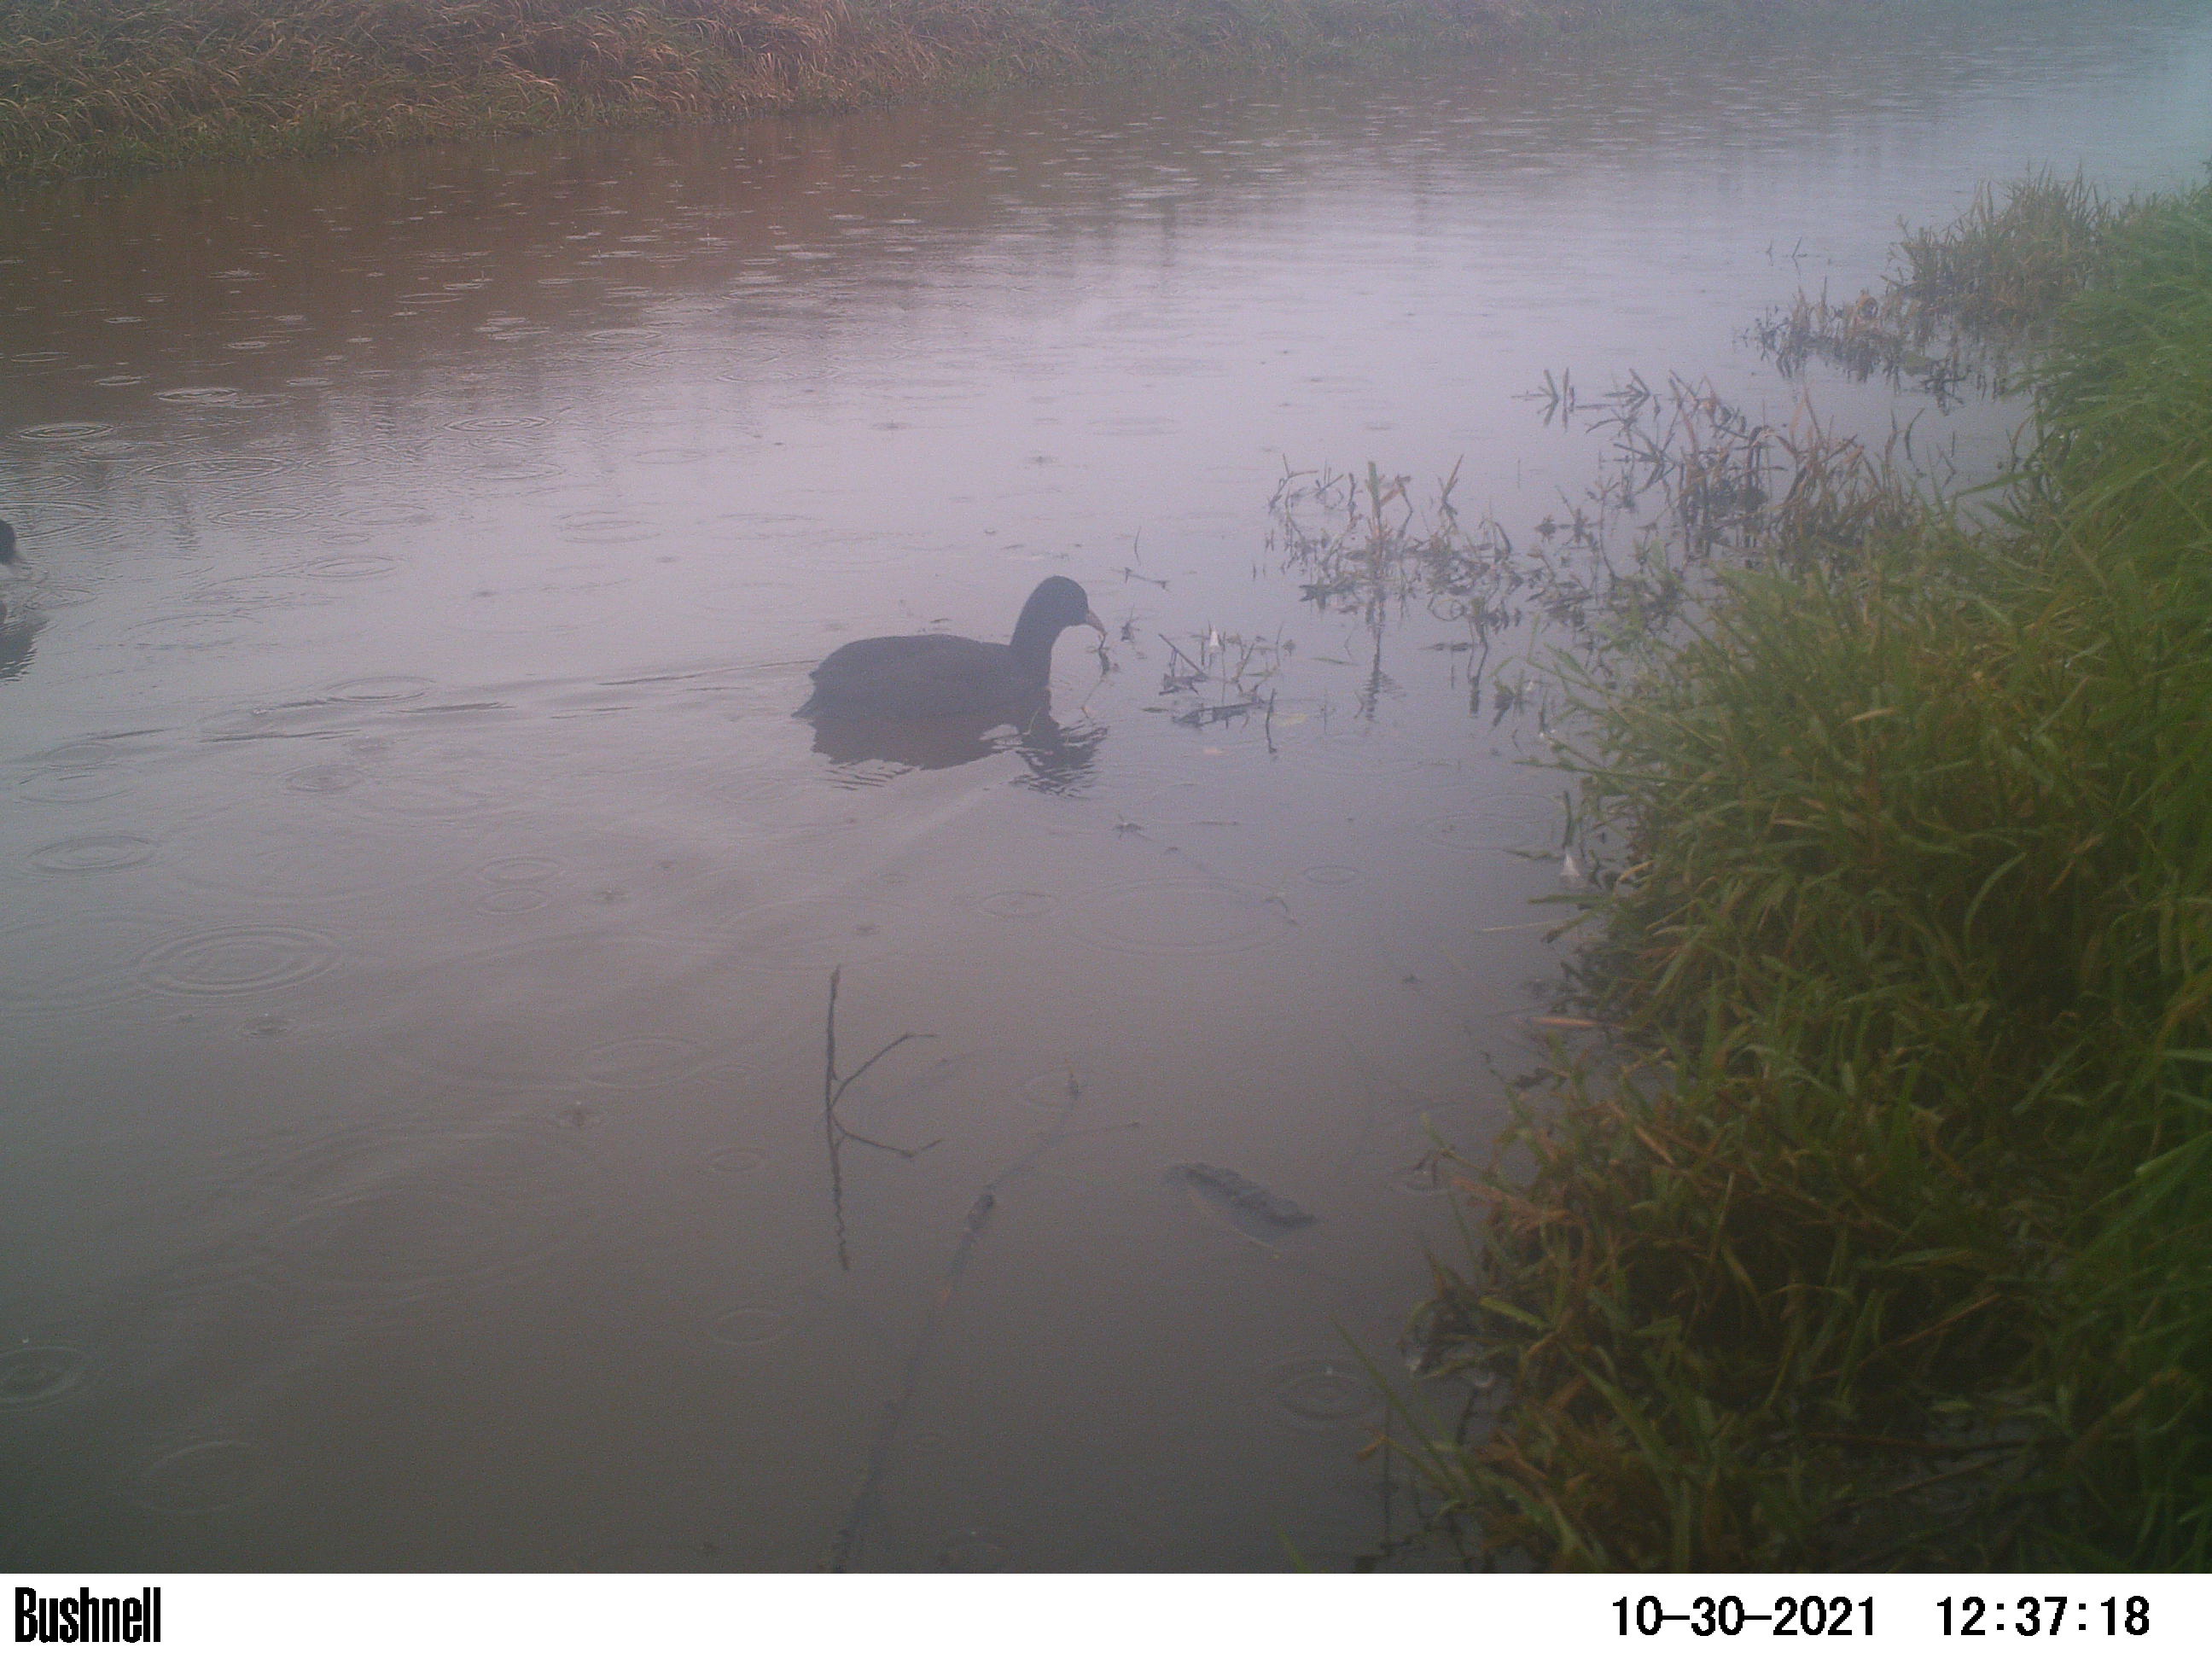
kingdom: Animalia
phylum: Chordata
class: Aves
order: Gruiformes
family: Rallidae
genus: Fulica
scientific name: Fulica atra
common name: Eurasian coot
